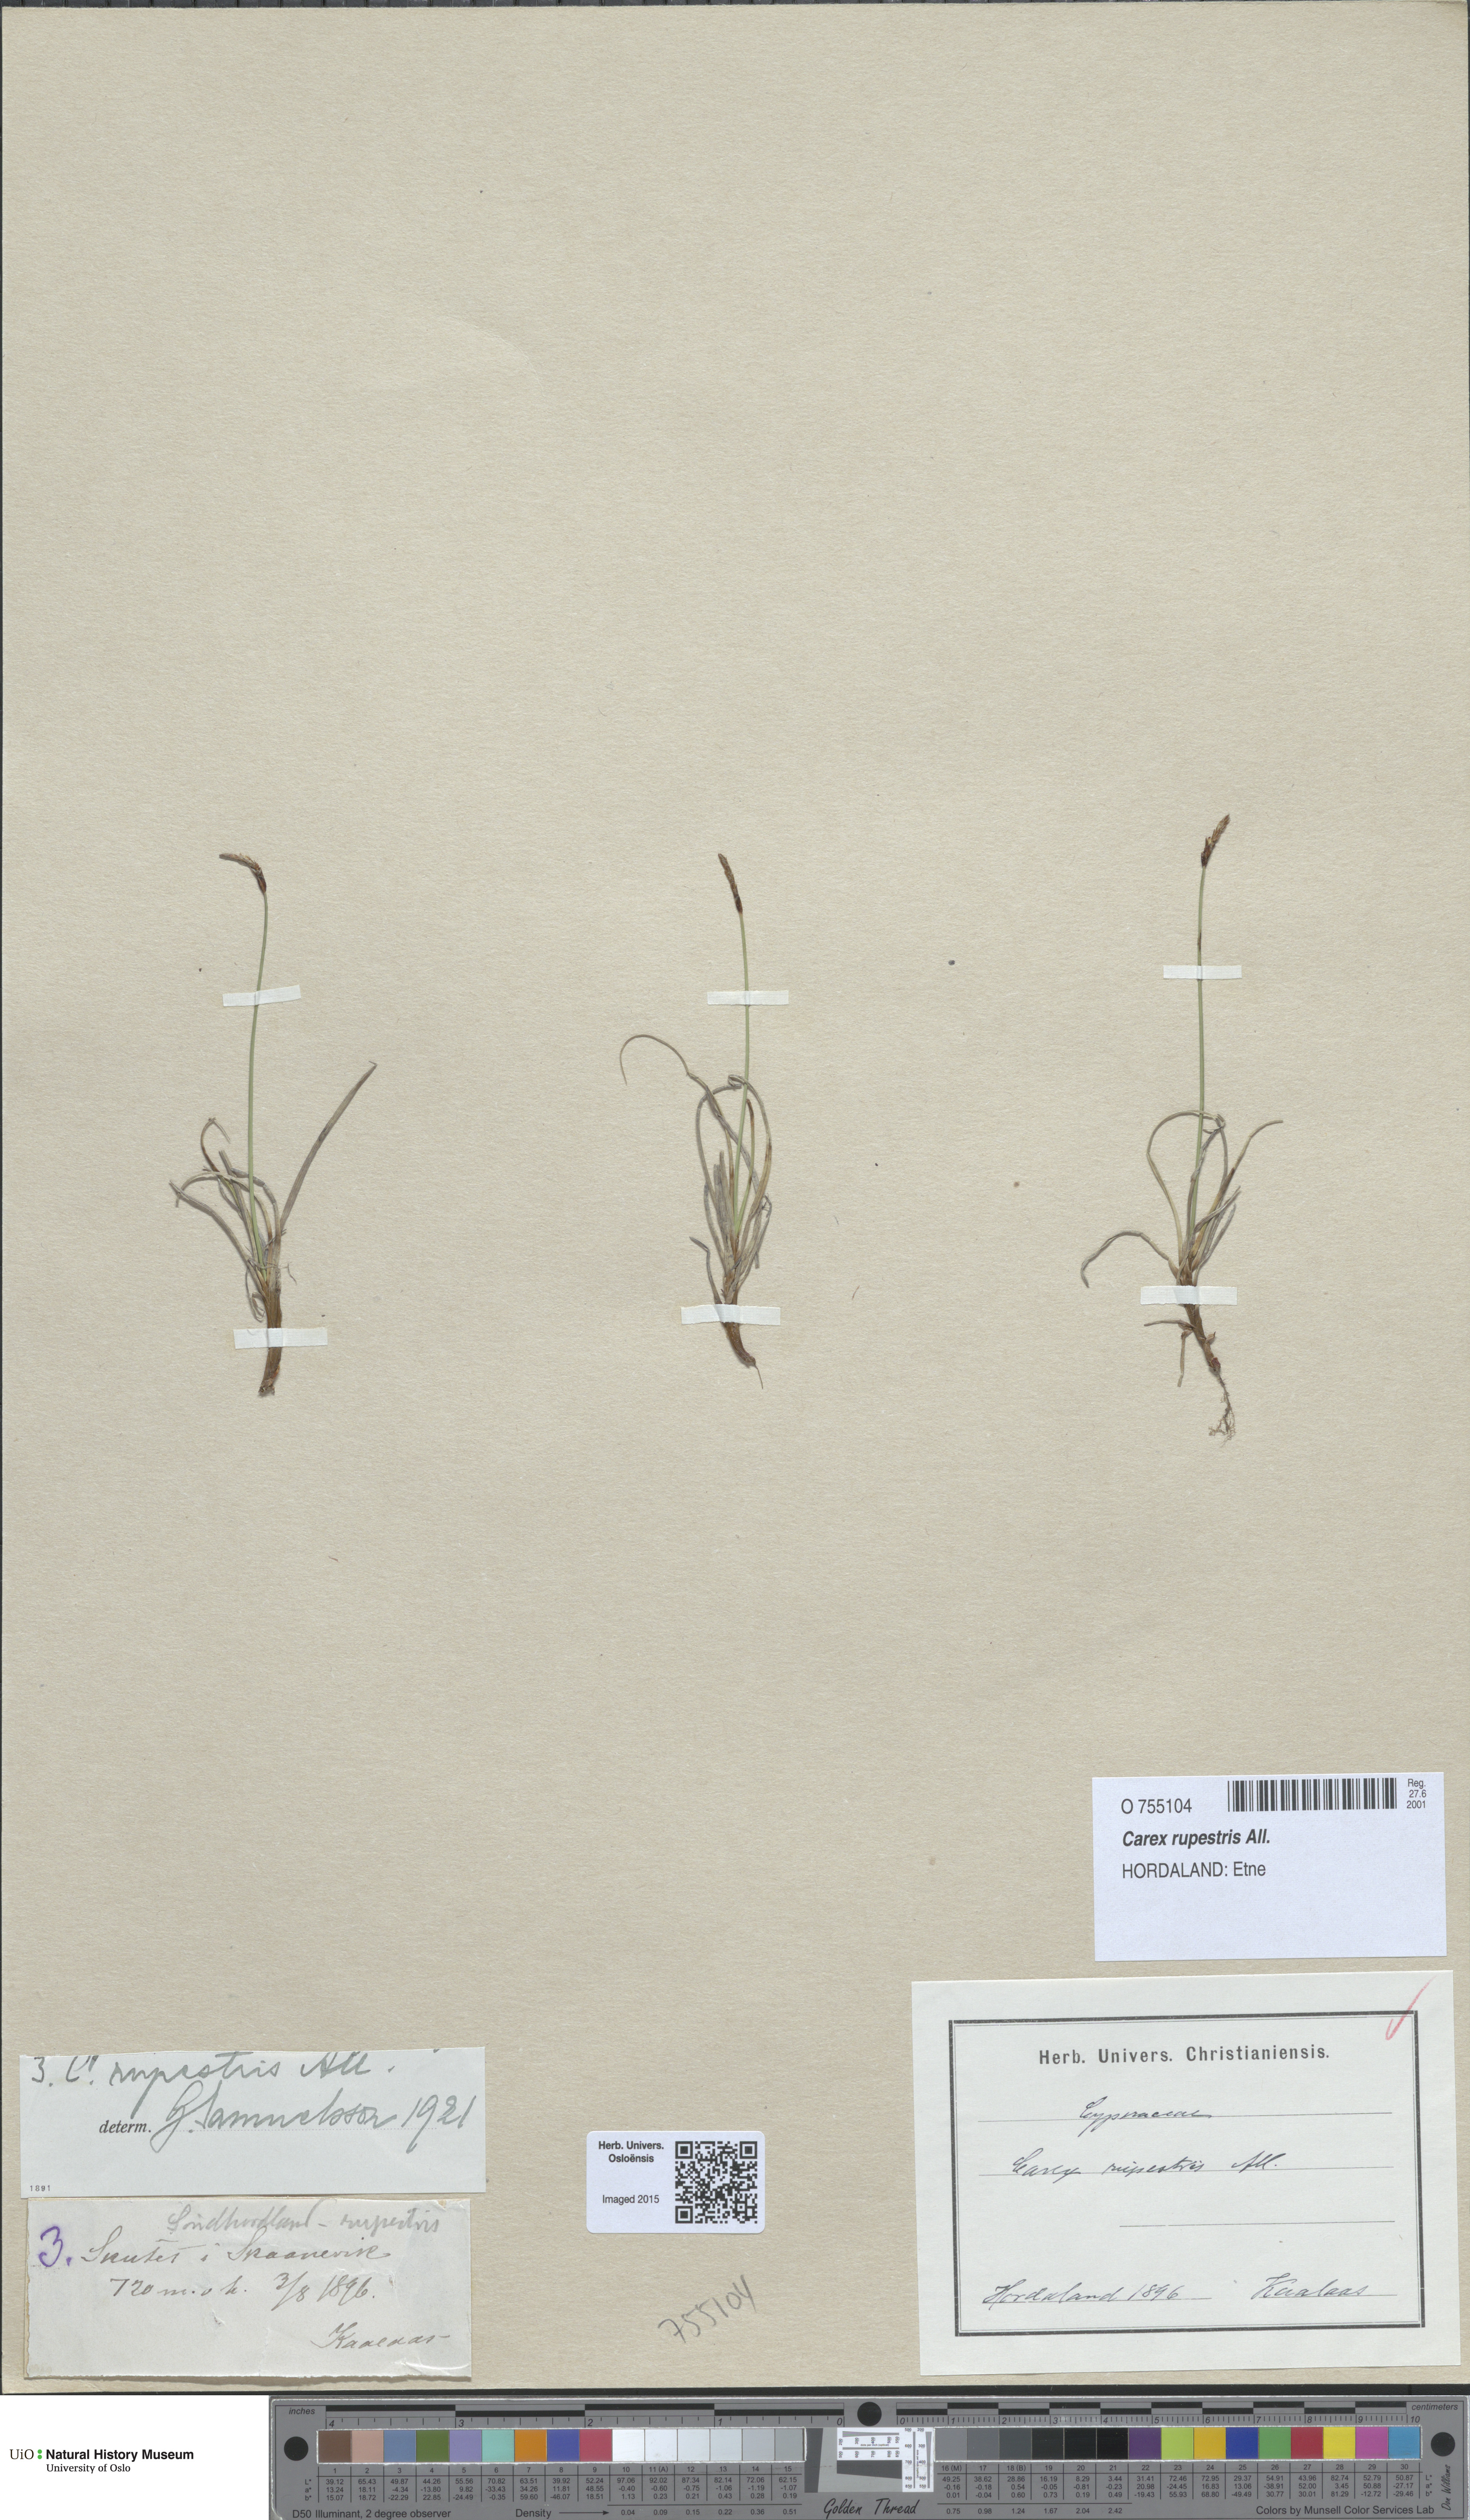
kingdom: Plantae
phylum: Tracheophyta
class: Liliopsida
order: Poales
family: Cyperaceae
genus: Carex
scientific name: Carex rupestris
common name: Rock sedge
